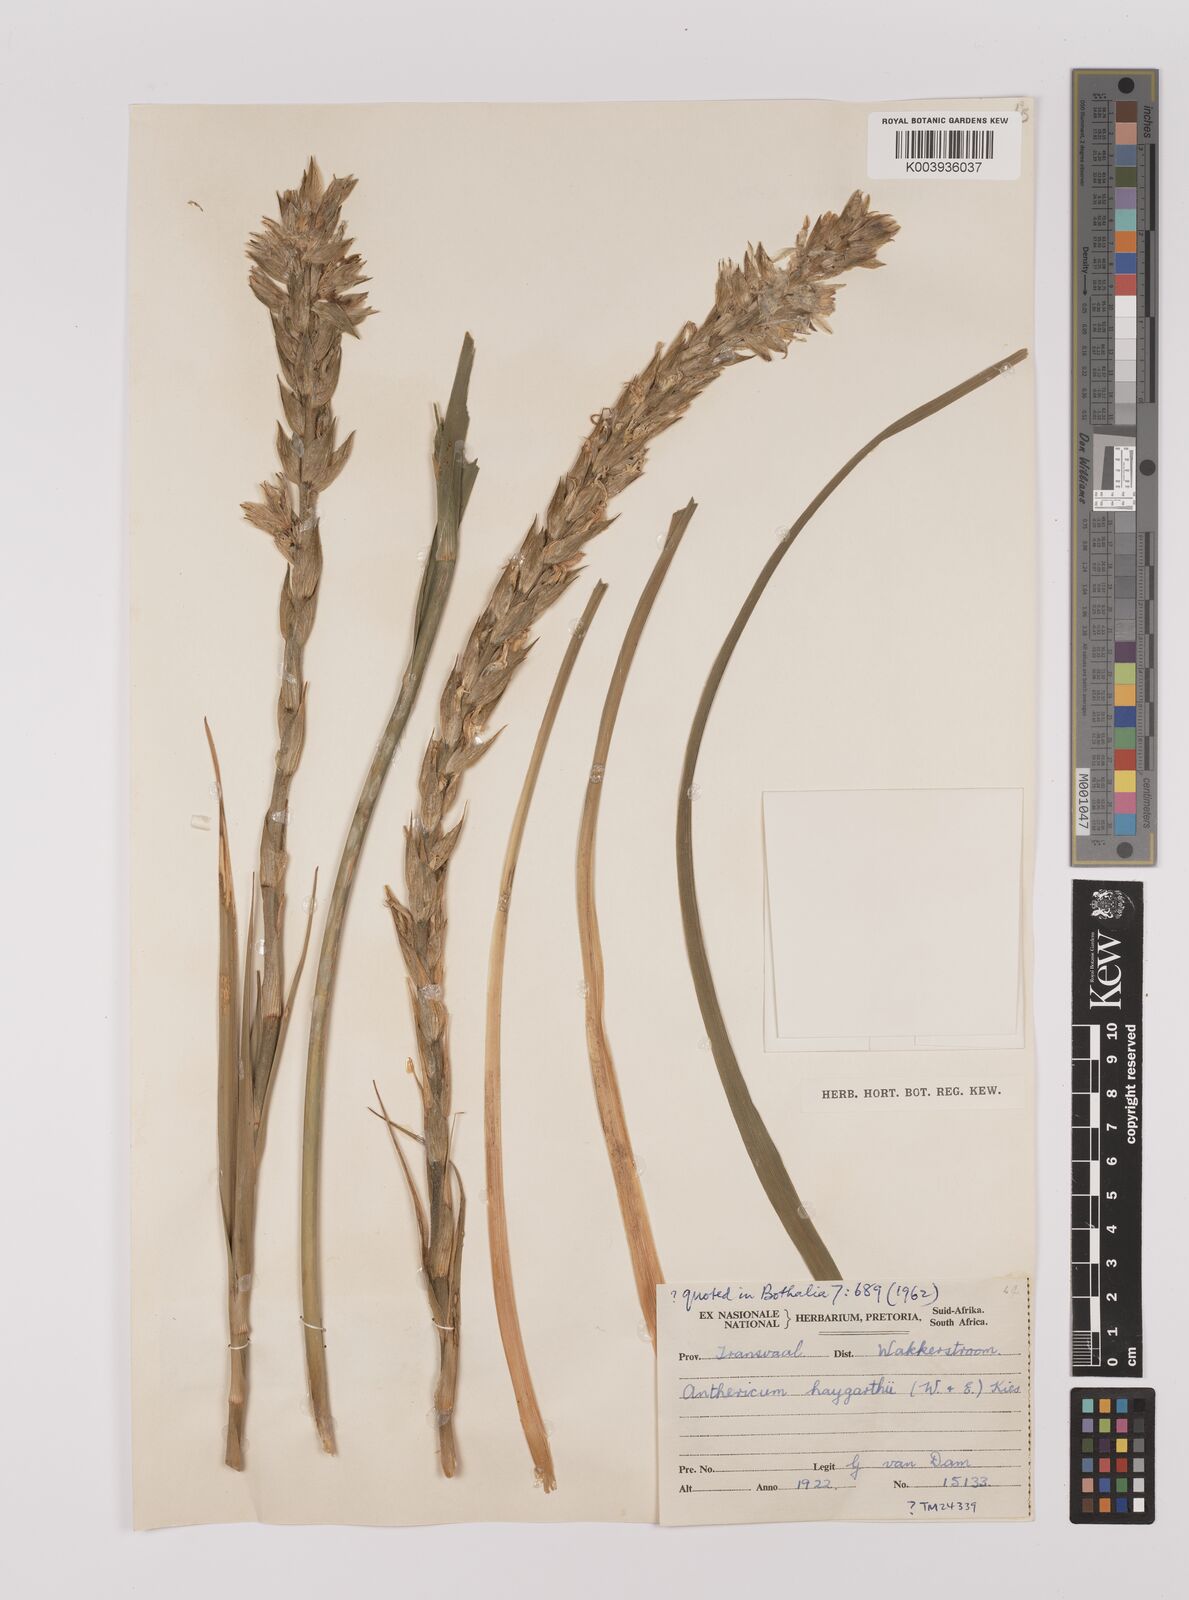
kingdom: Plantae
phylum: Tracheophyta
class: Liliopsida
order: Asparagales
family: Asparagaceae
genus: Chlorophytum
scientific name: Chlorophytum haygarthii
